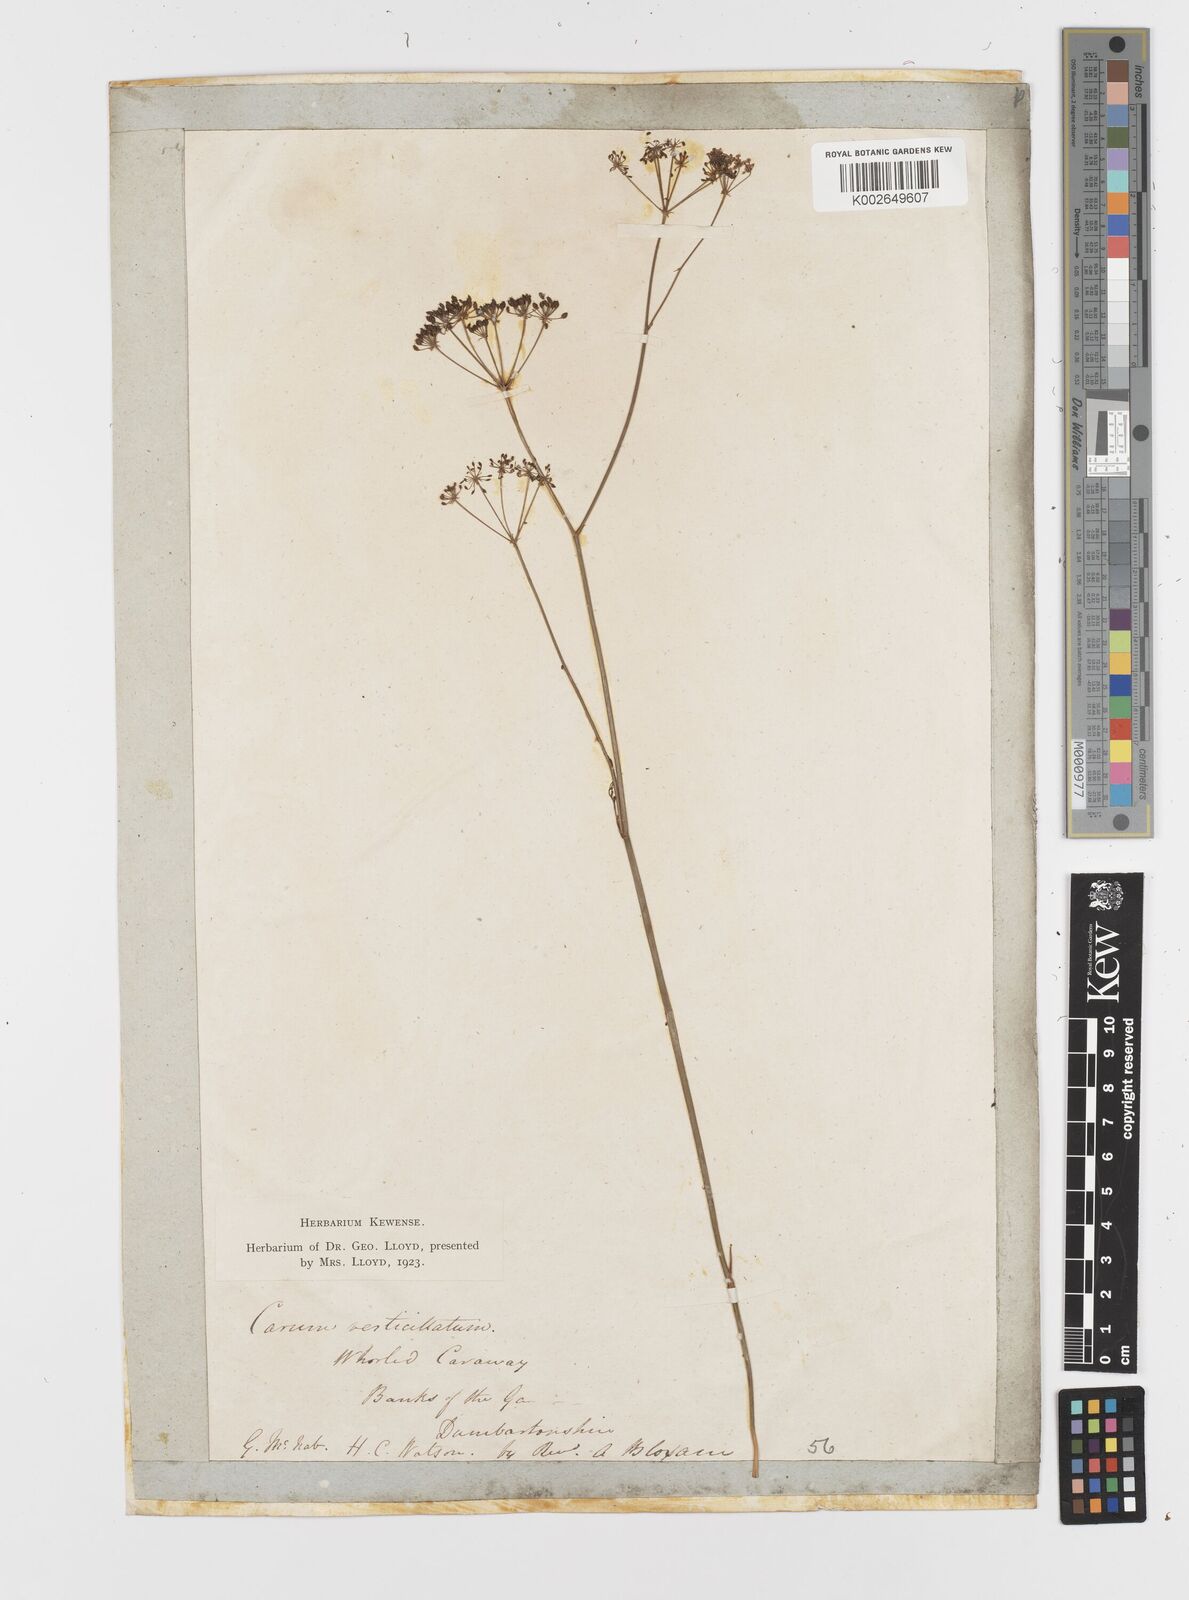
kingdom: Plantae
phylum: Tracheophyta
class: Magnoliopsida
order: Apiales
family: Apiaceae
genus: Trocdaris
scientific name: Trocdaris verticillatum
